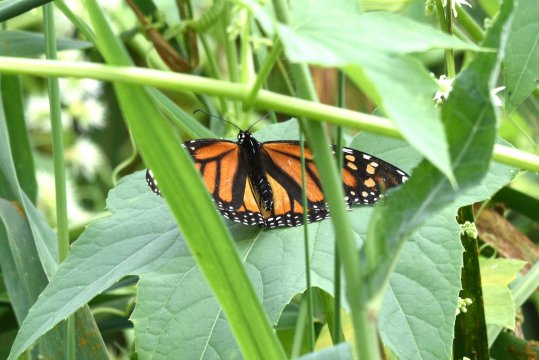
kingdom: Animalia
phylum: Arthropoda
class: Insecta
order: Lepidoptera
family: Nymphalidae
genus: Danaus
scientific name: Danaus plexippus
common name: Monarch
